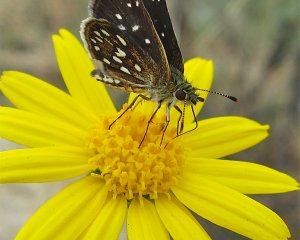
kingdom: Animalia
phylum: Arthropoda
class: Insecta
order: Lepidoptera
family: Hesperiidae
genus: Piruna
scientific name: Piruna aea
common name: Many-spotted Skipperling
